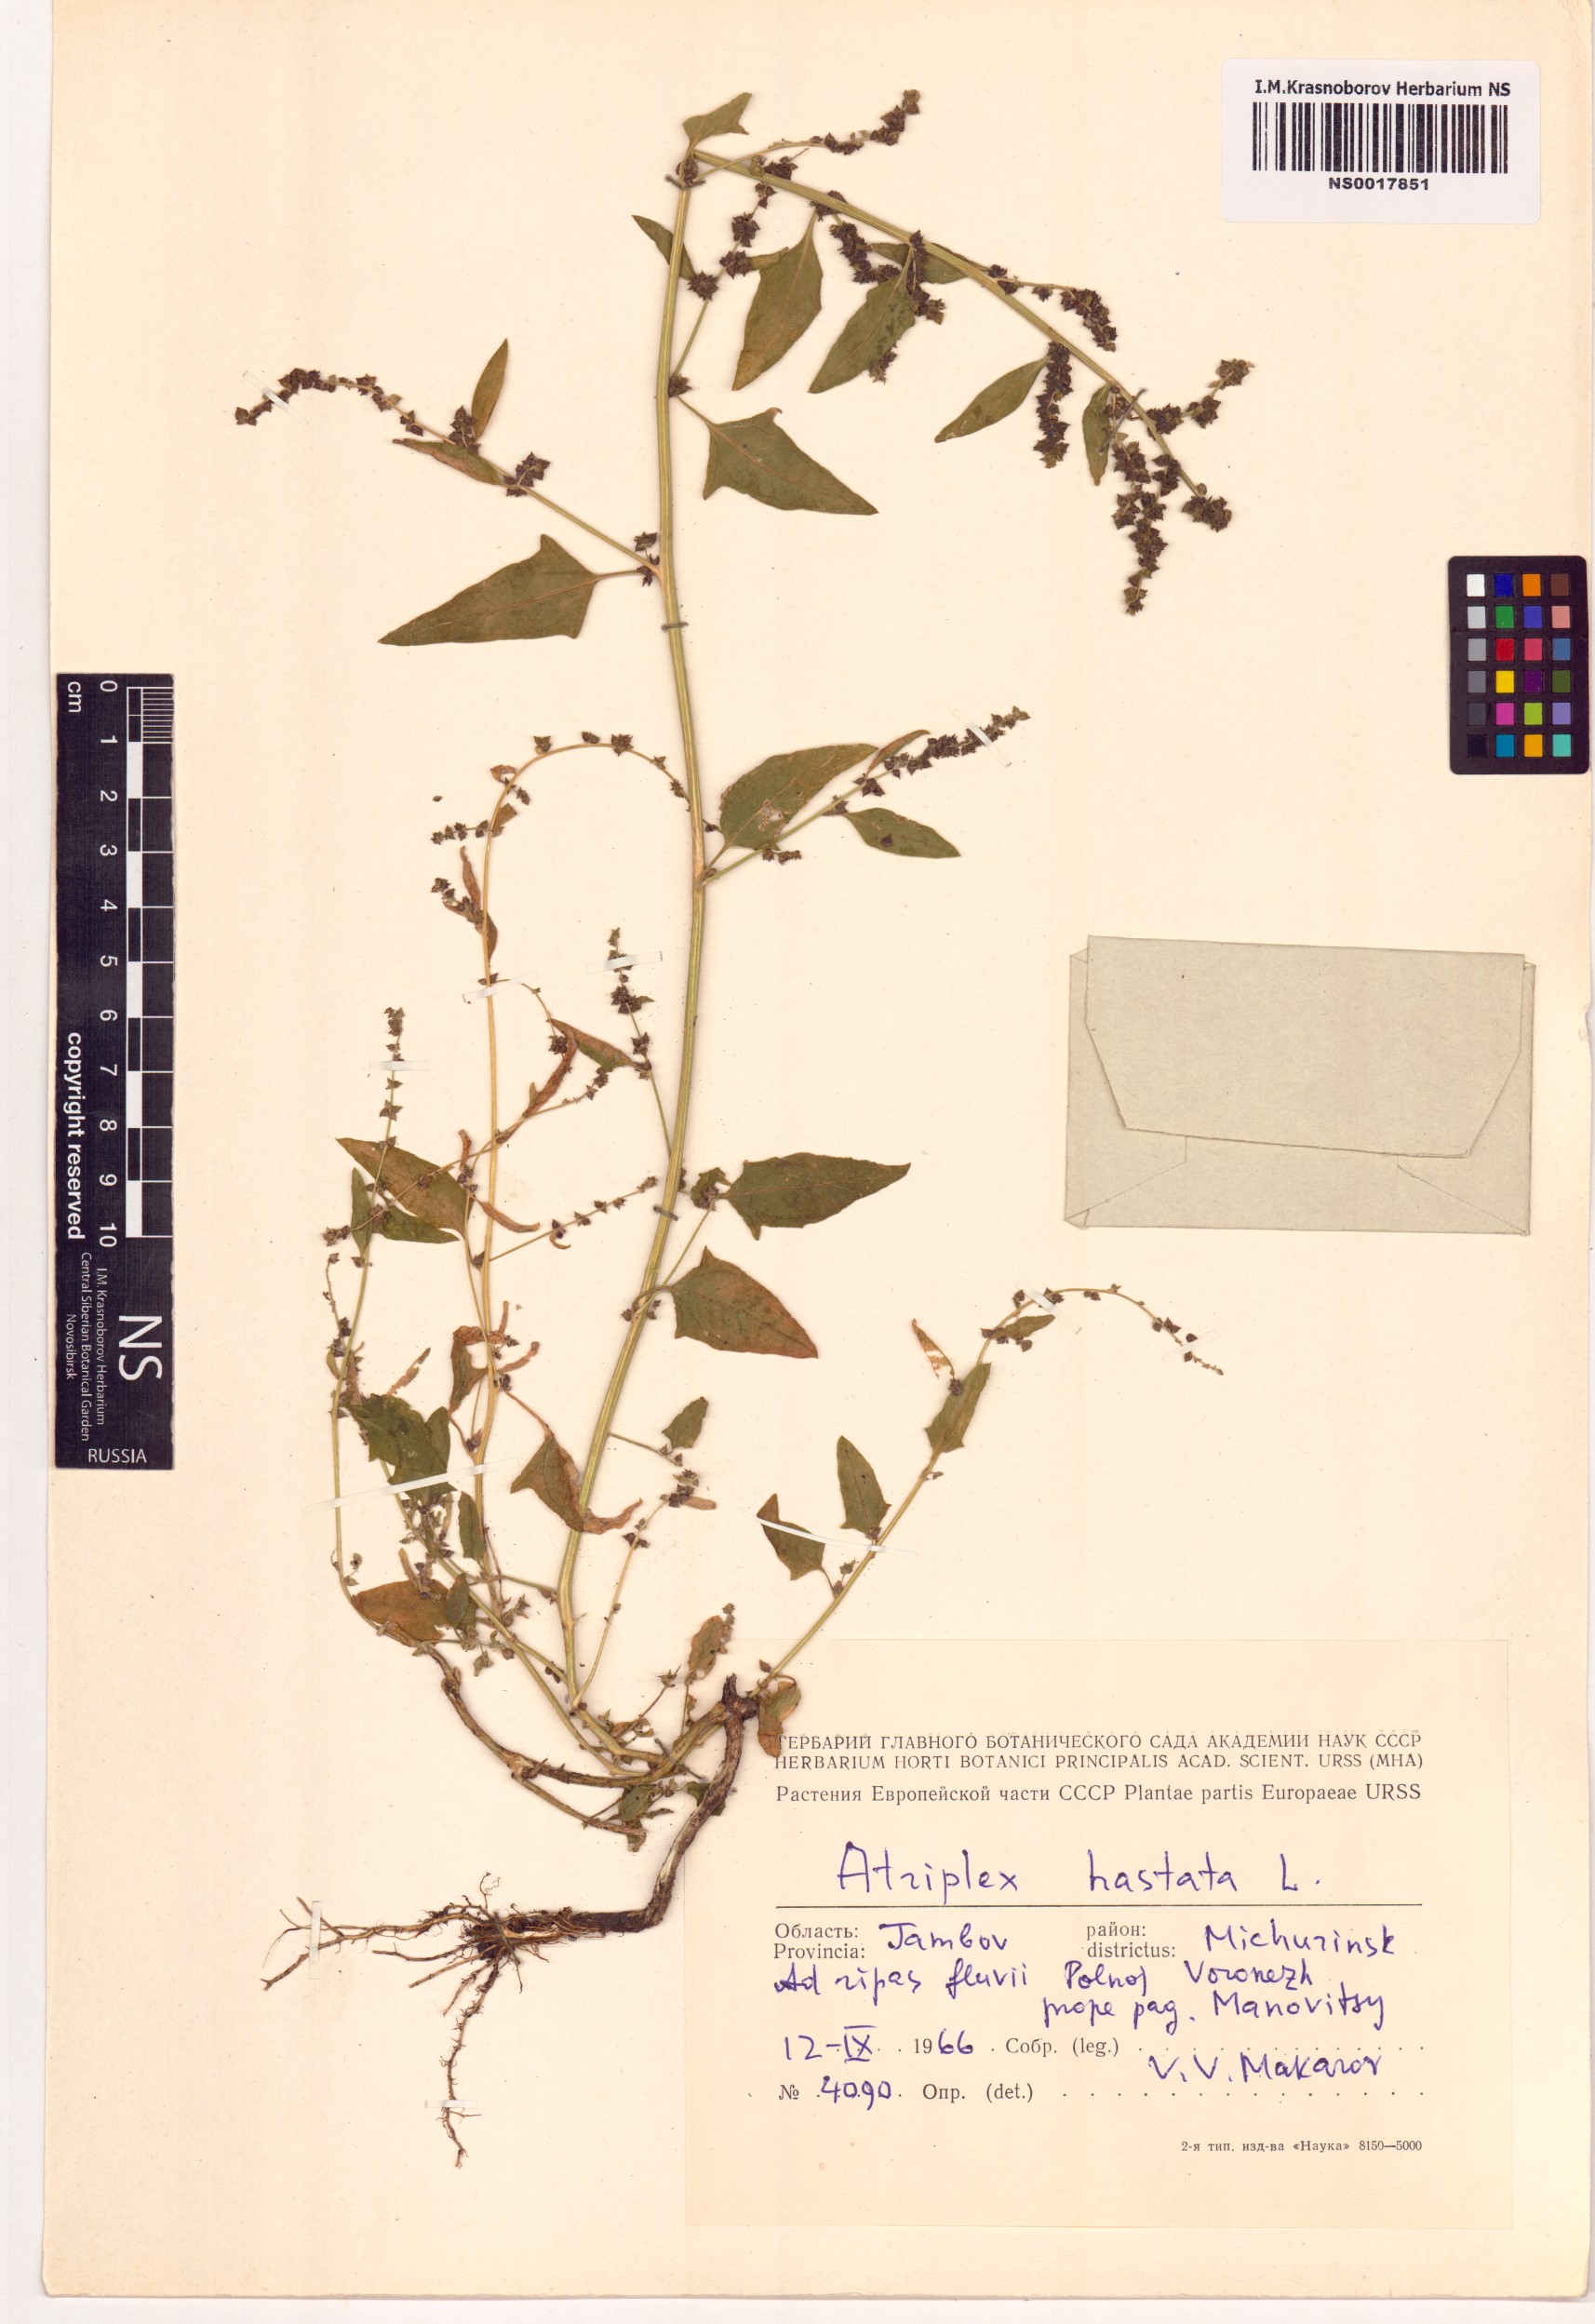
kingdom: Plantae
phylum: Tracheophyta
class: Magnoliopsida
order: Caryophyllales
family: Amaranthaceae
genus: Atriplex
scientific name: Atriplex calotheca
